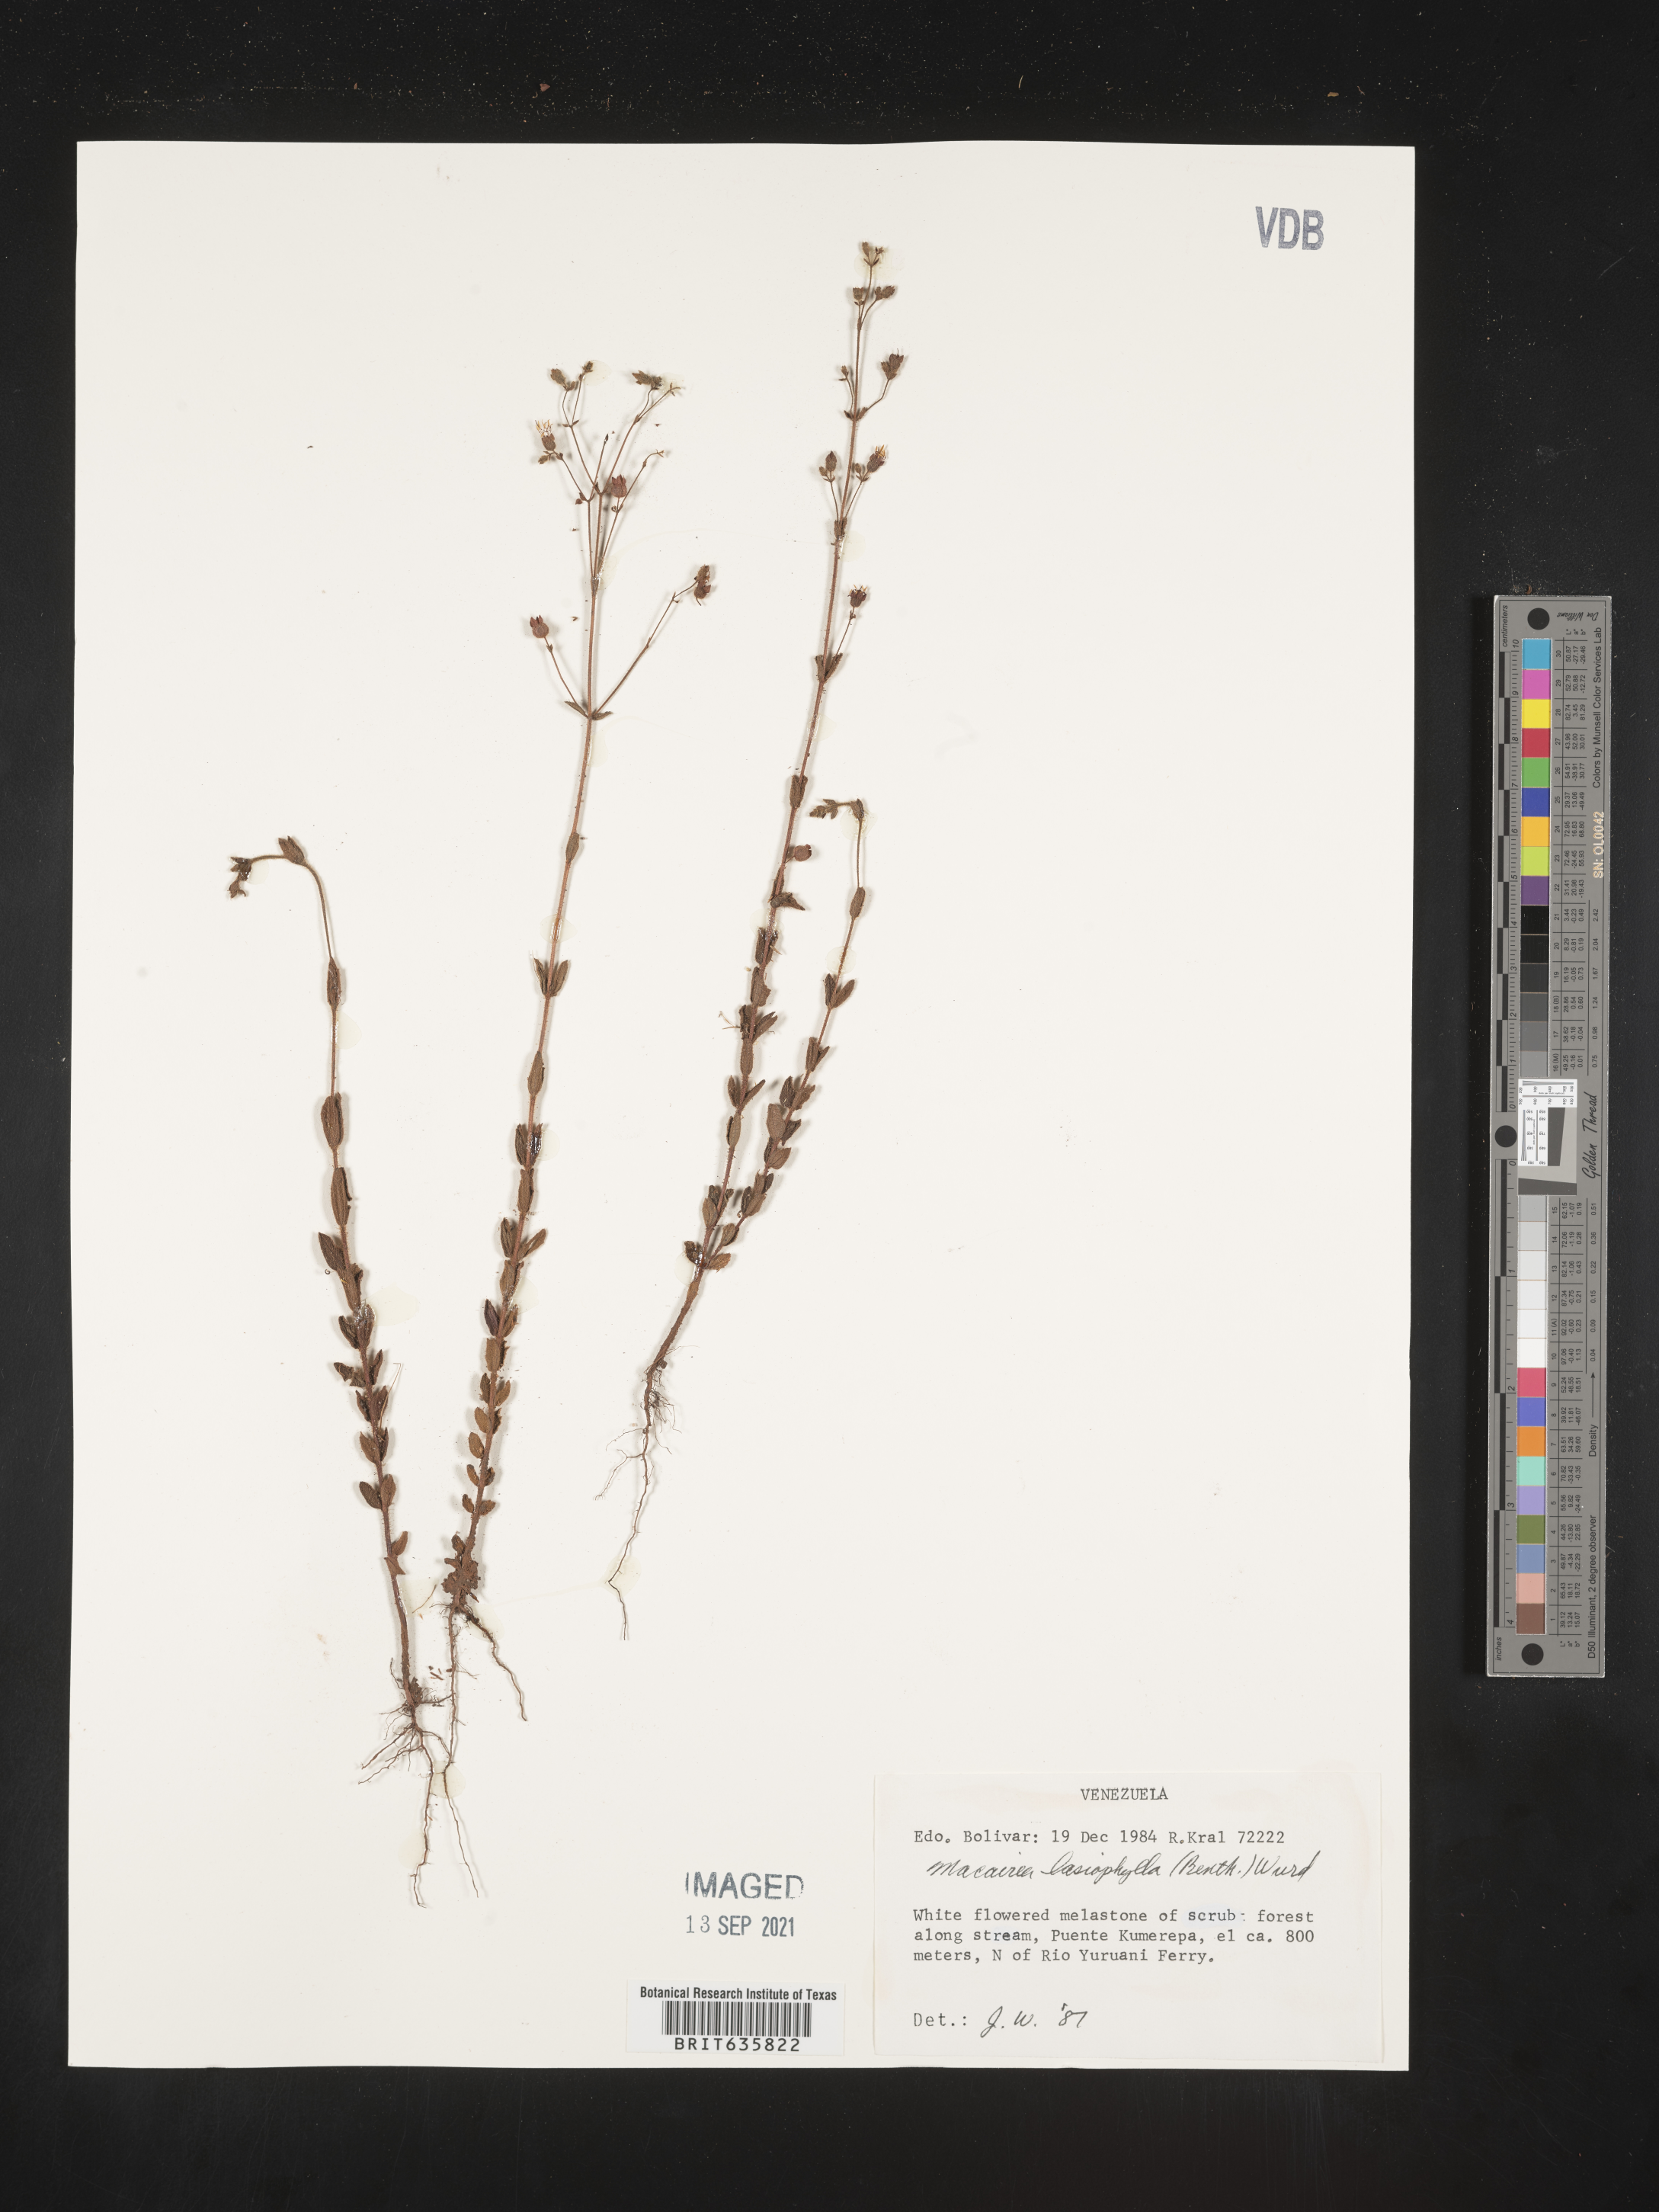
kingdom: Plantae
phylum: Tracheophyta
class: Magnoliopsida
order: Myrtales
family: Melastomataceae
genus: Macairea
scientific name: Macairea
